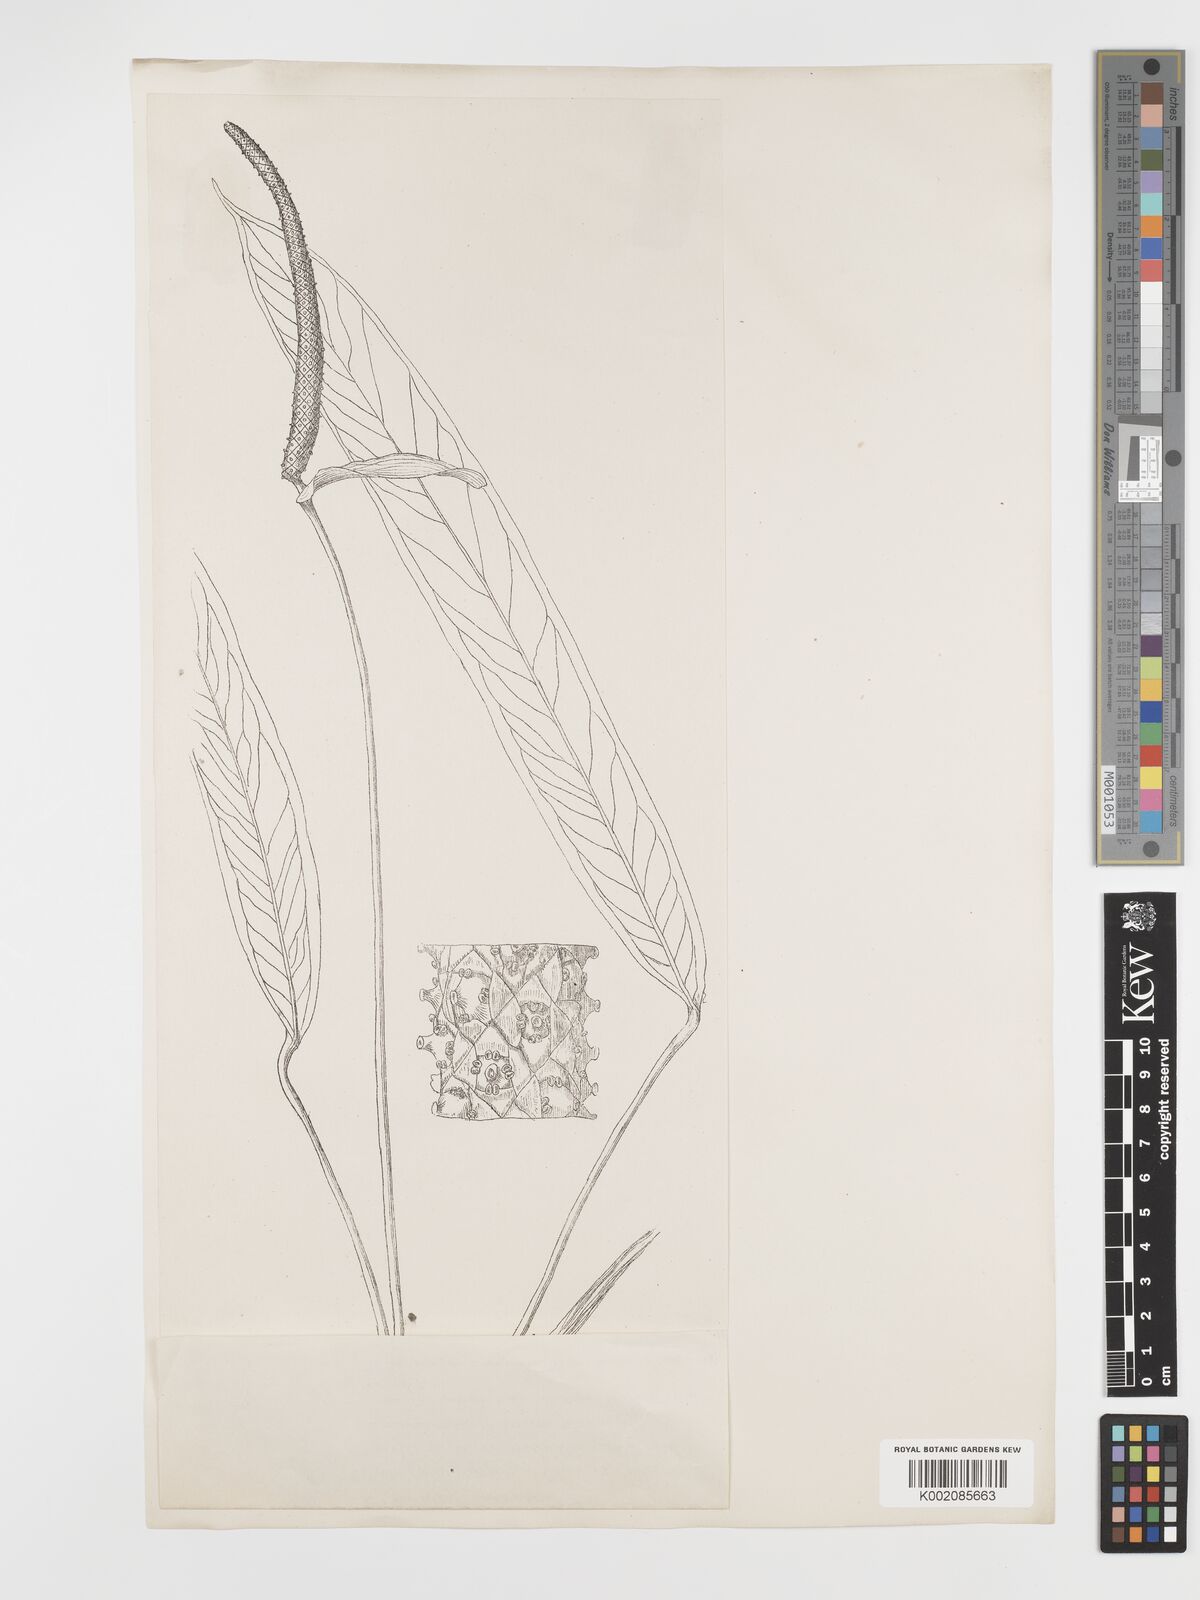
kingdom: Plantae
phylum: Tracheophyta
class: Liliopsida
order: Alismatales
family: Araceae
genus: Anthurium
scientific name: Anthurium bredemeyeri
